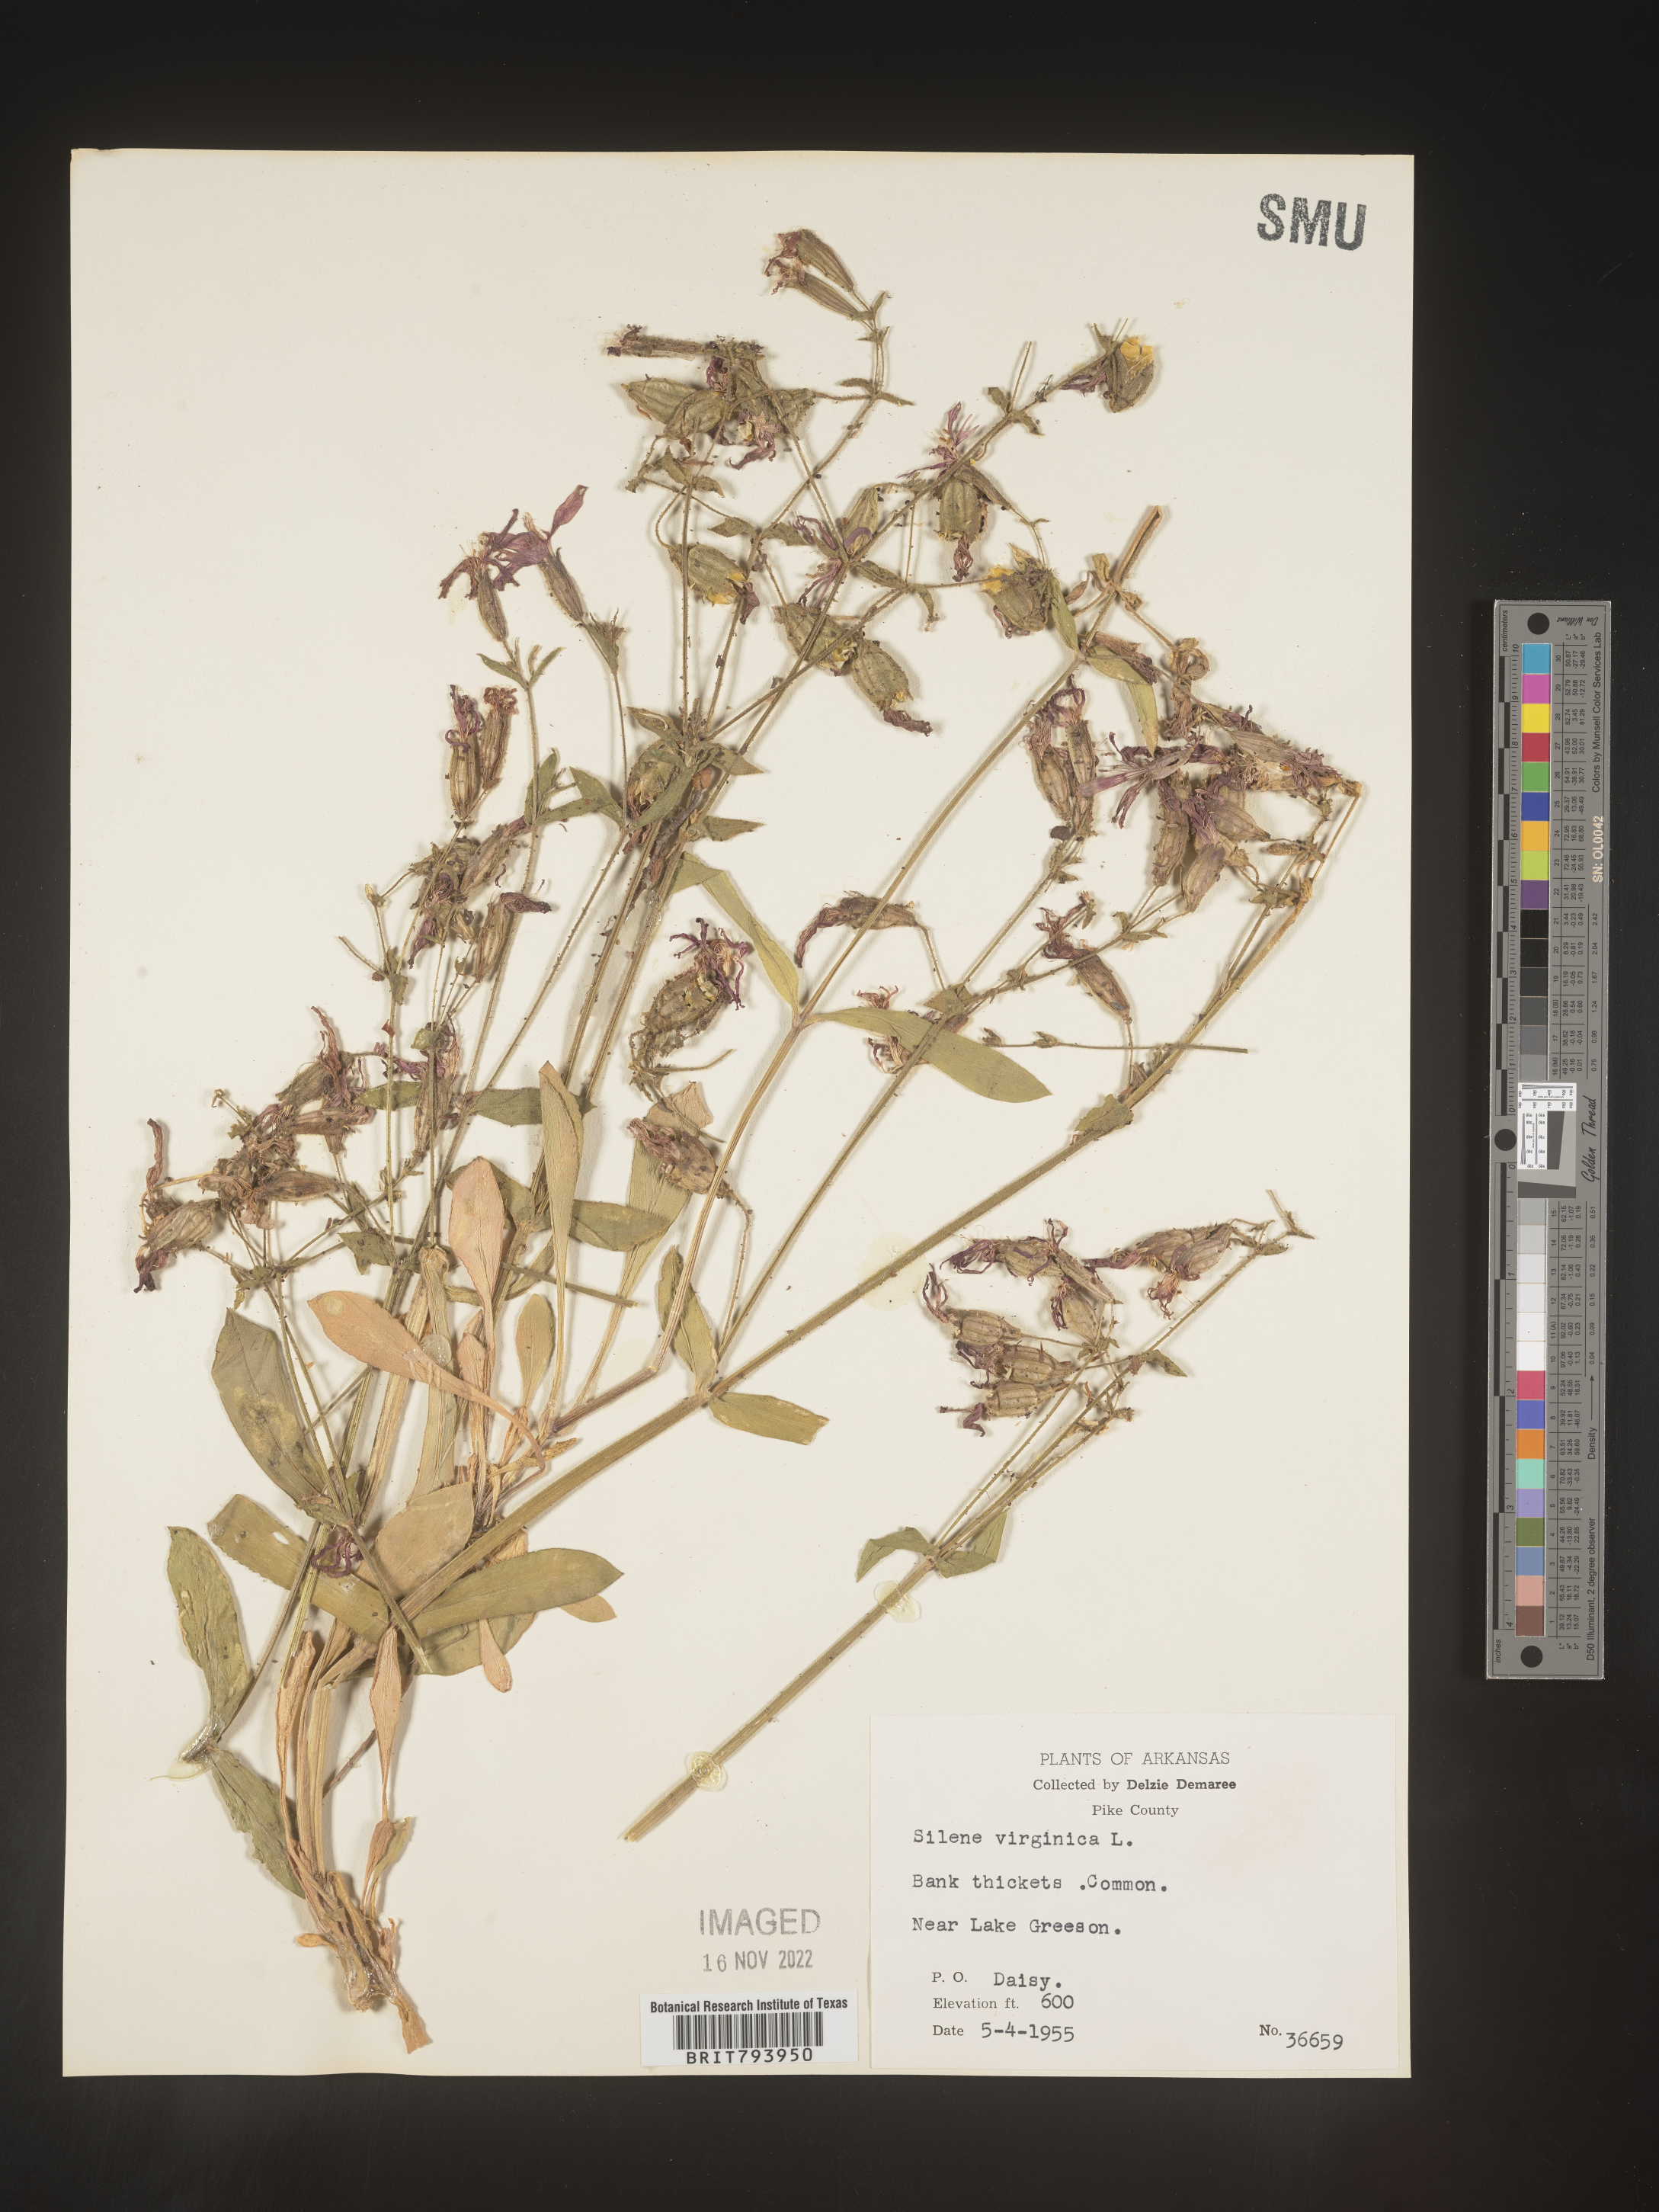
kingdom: Plantae
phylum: Tracheophyta
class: Magnoliopsida
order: Caryophyllales
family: Caryophyllaceae
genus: Silene
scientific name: Silene virginica
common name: Fire-pink
